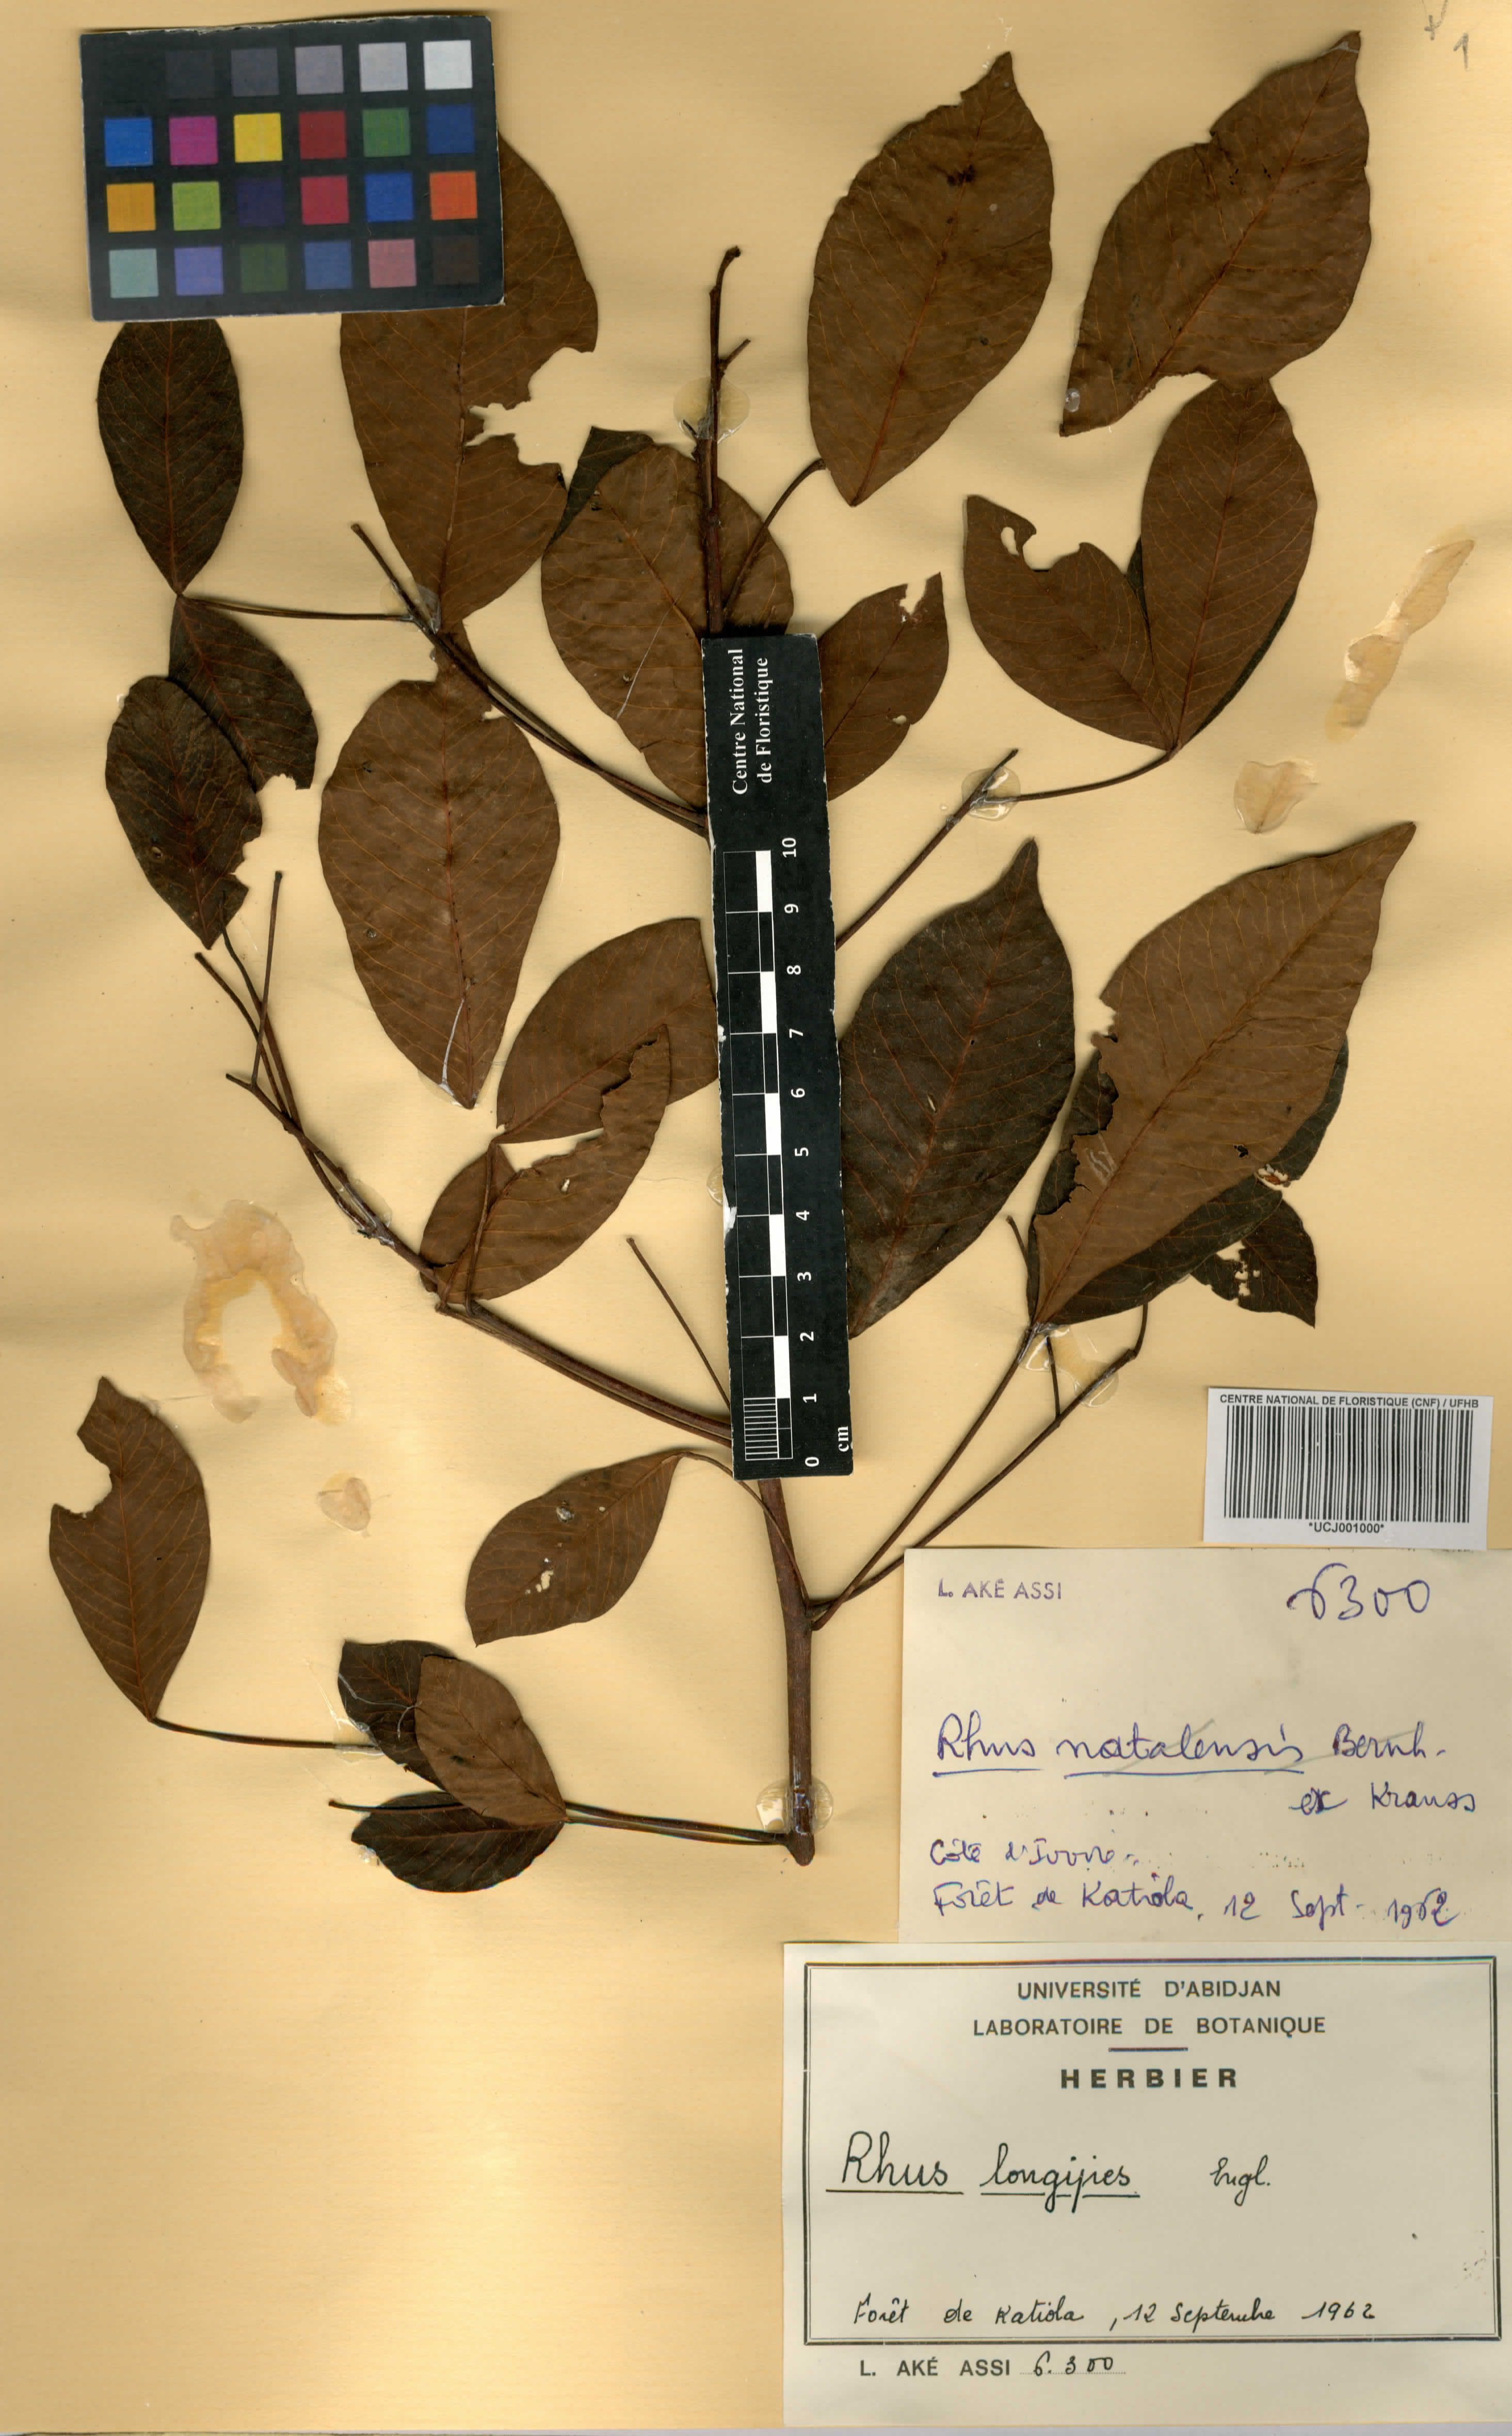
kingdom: Plantae
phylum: Tracheophyta
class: Magnoliopsida
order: Sapindales
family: Anacardiaceae
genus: Searsia
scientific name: Searsia longipes
